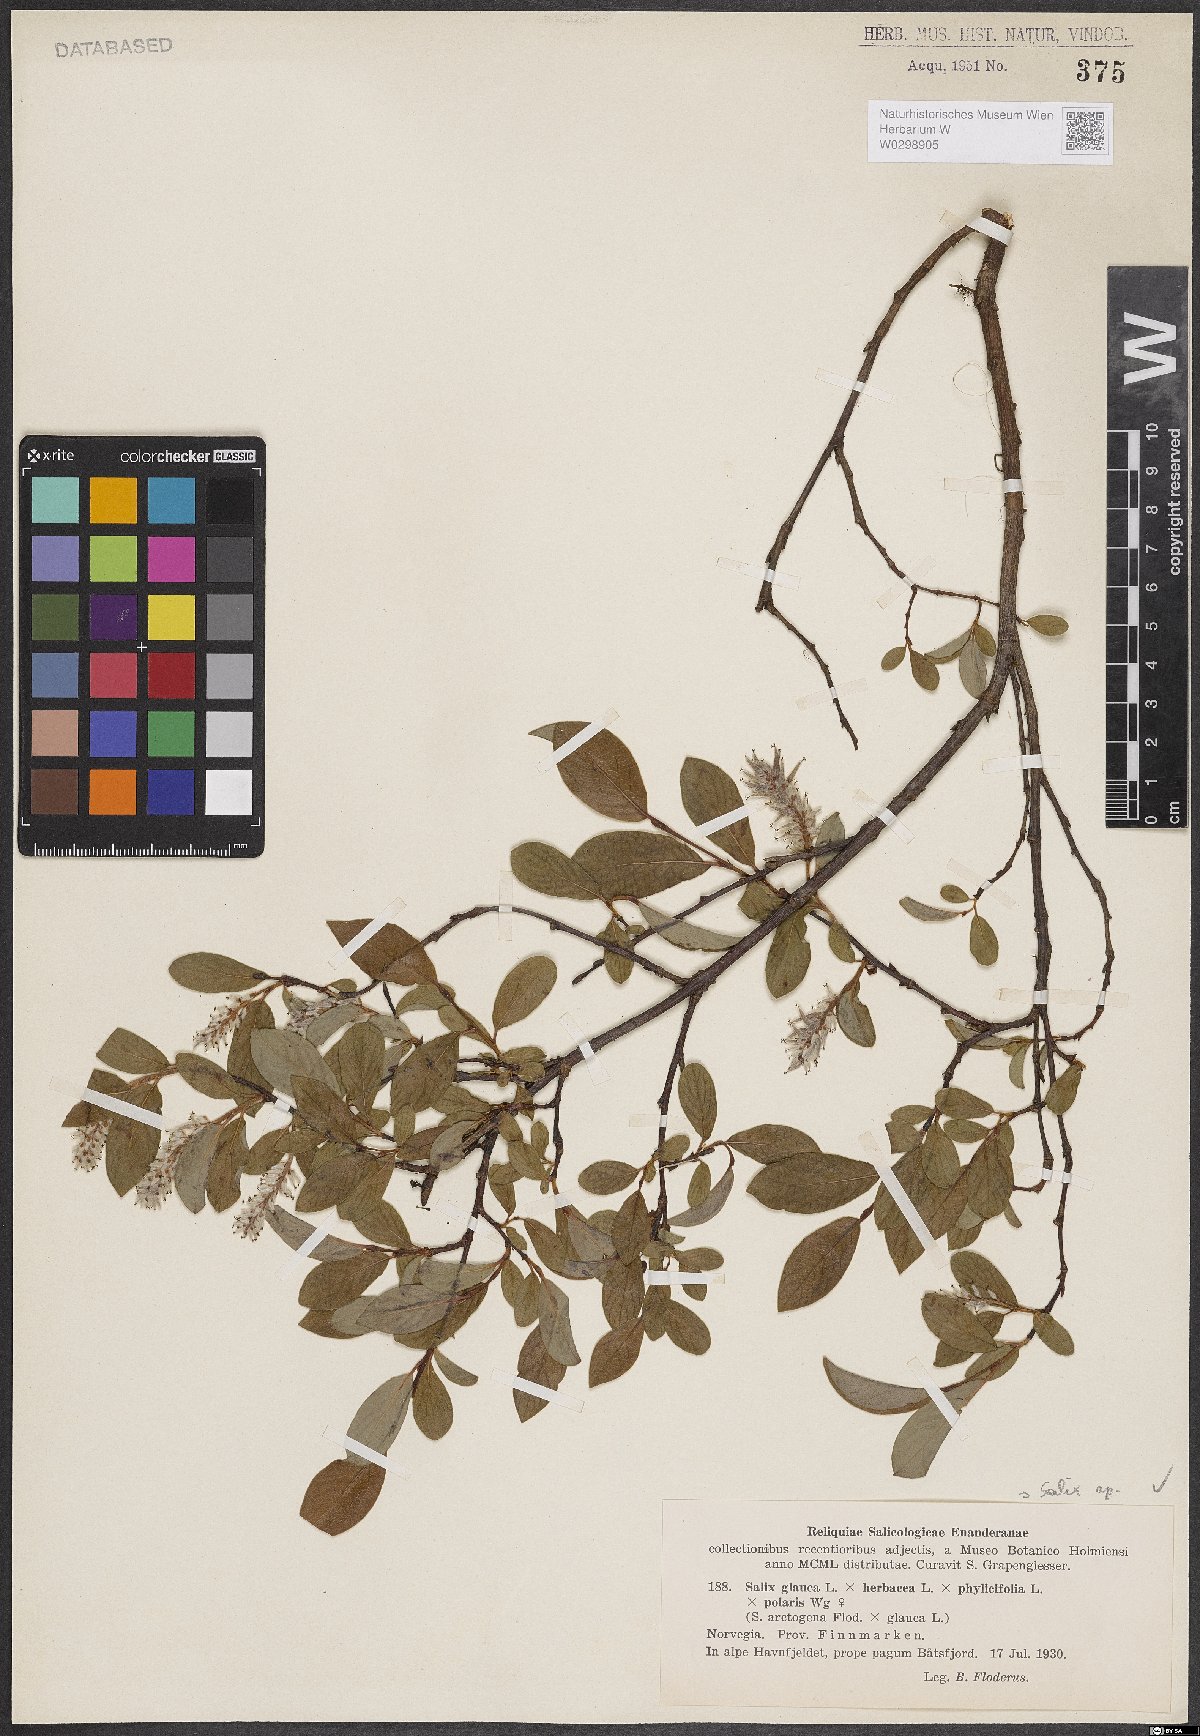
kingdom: Plantae
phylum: Tracheophyta
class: Magnoliopsida
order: Malpighiales
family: Salicaceae
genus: Salix
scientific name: Salix
